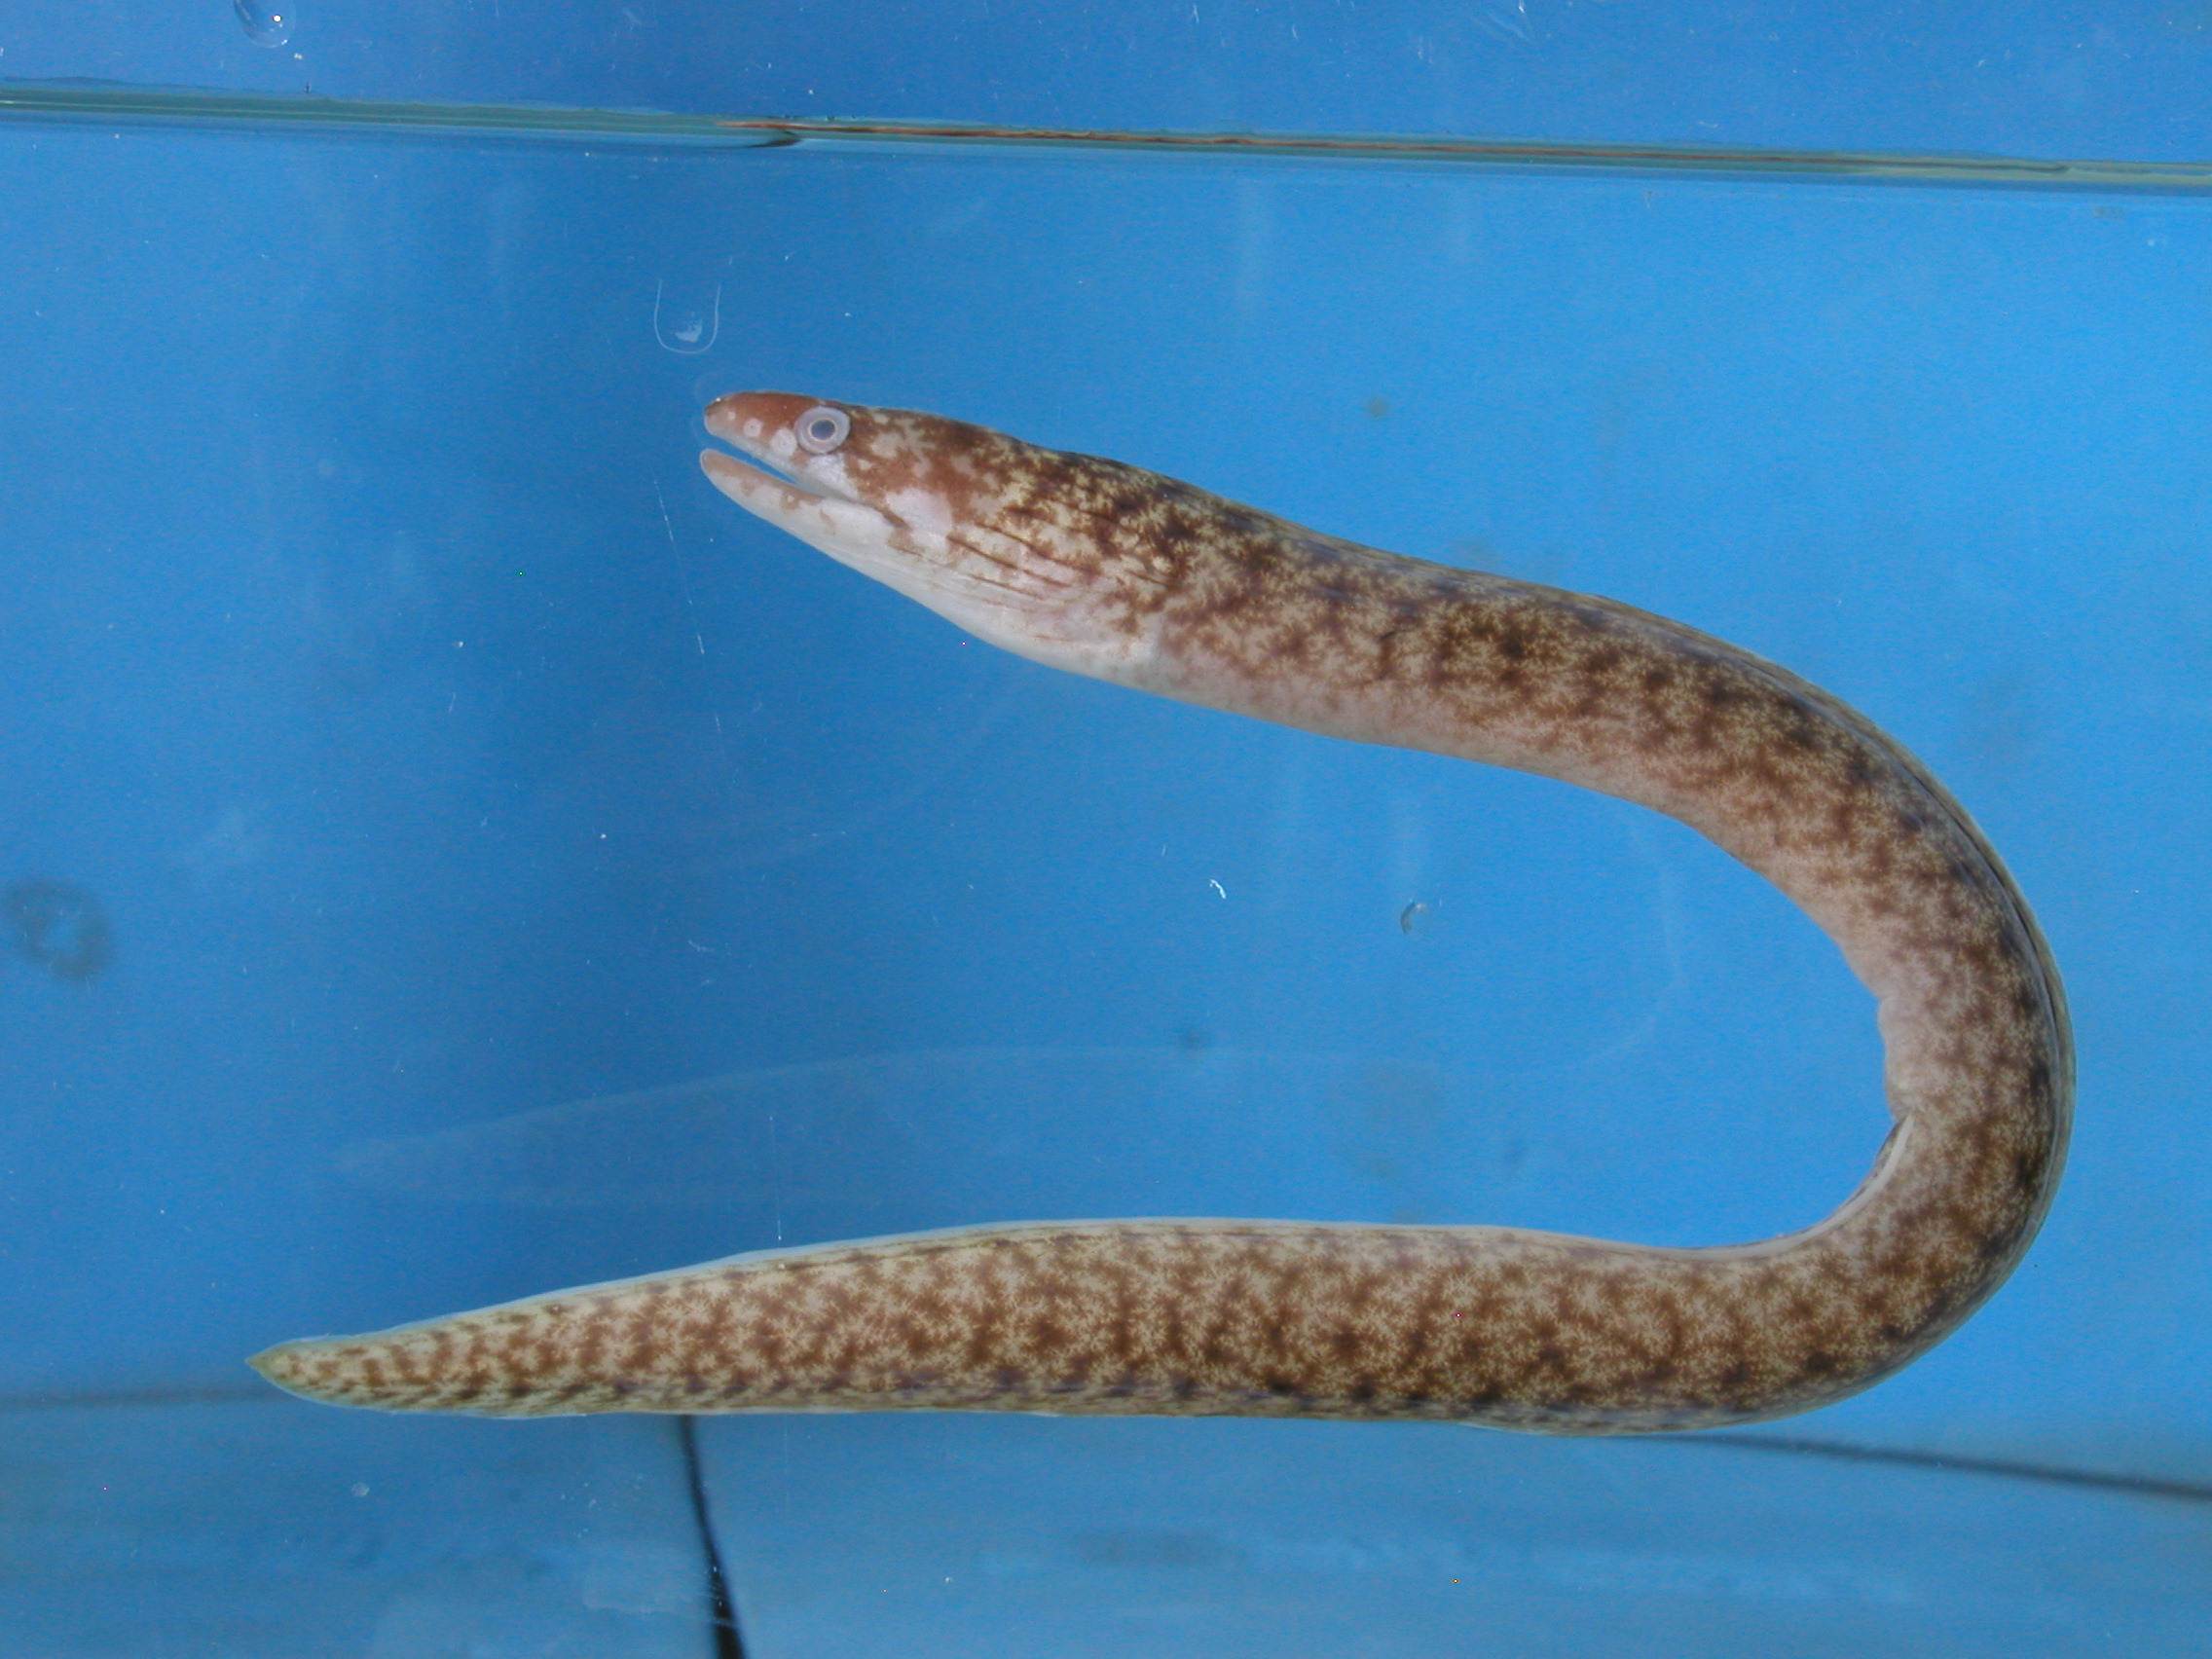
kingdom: Animalia
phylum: Chordata
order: Anguilliformes
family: Muraenidae
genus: Gymnothorax
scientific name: Gymnothorax chilospilus
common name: Lipspot moray
